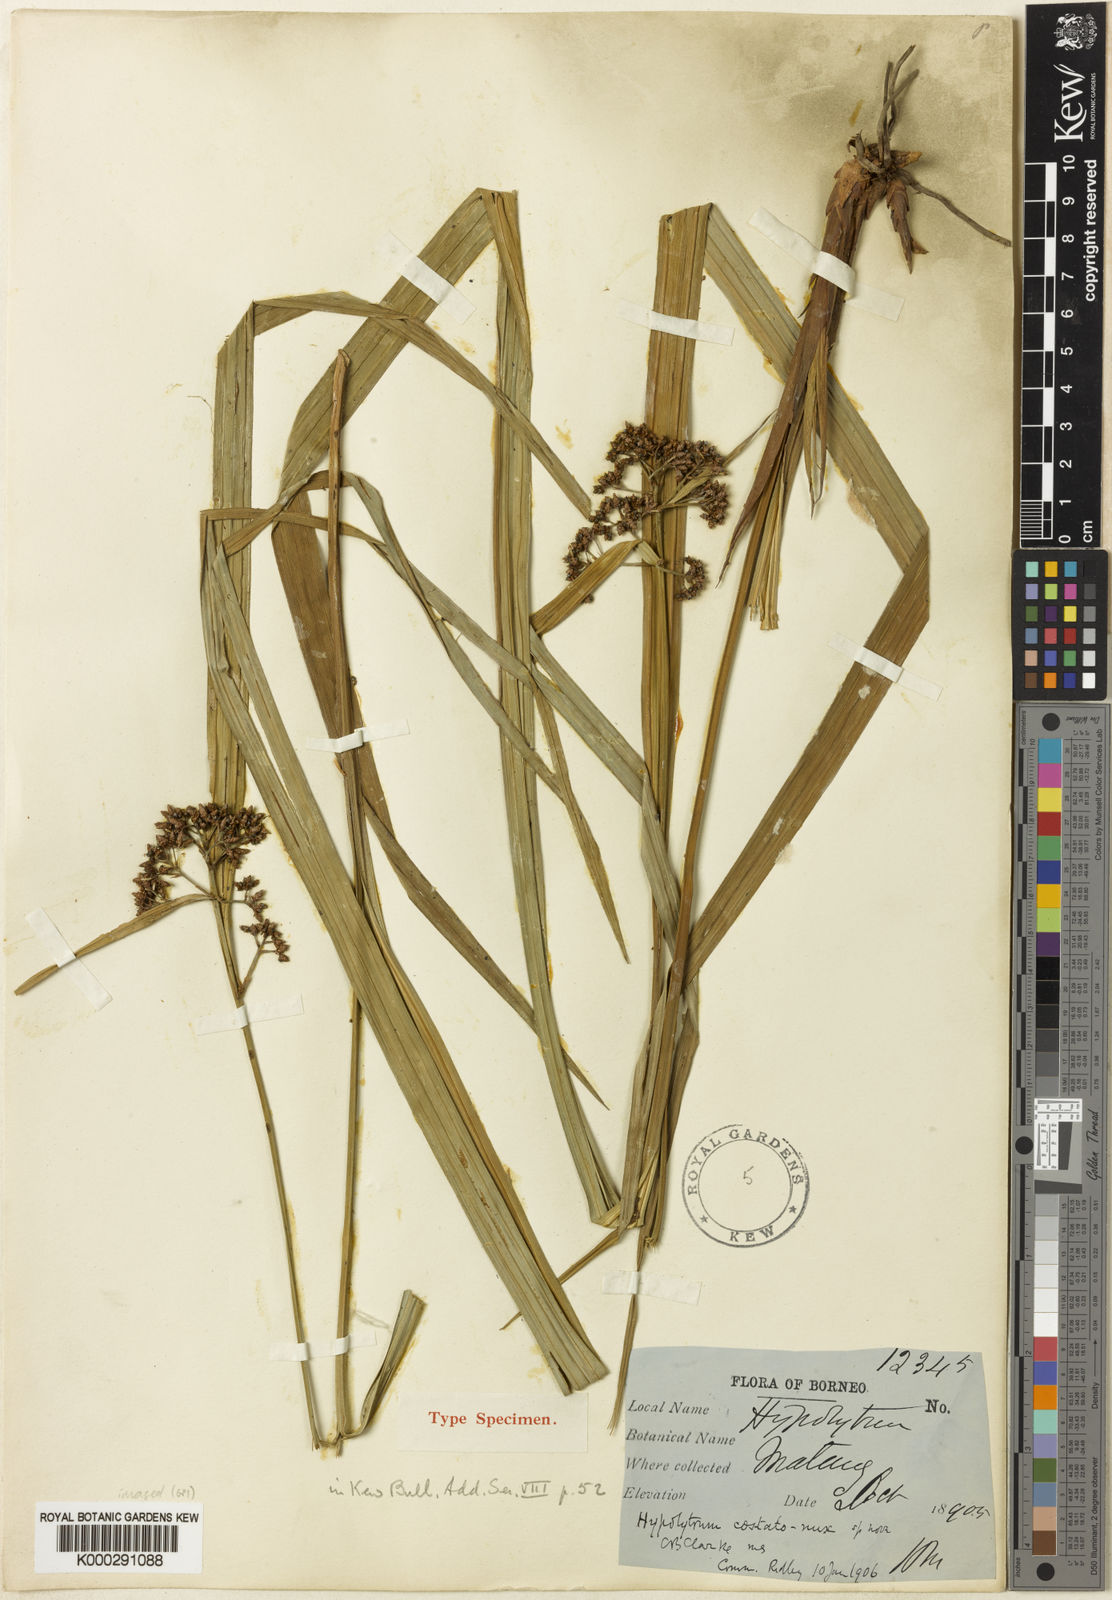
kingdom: Plantae
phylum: Tracheophyta
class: Liliopsida
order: Poales
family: Cyperaceae
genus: Hypolytrum
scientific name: Hypolytrum nemorum
